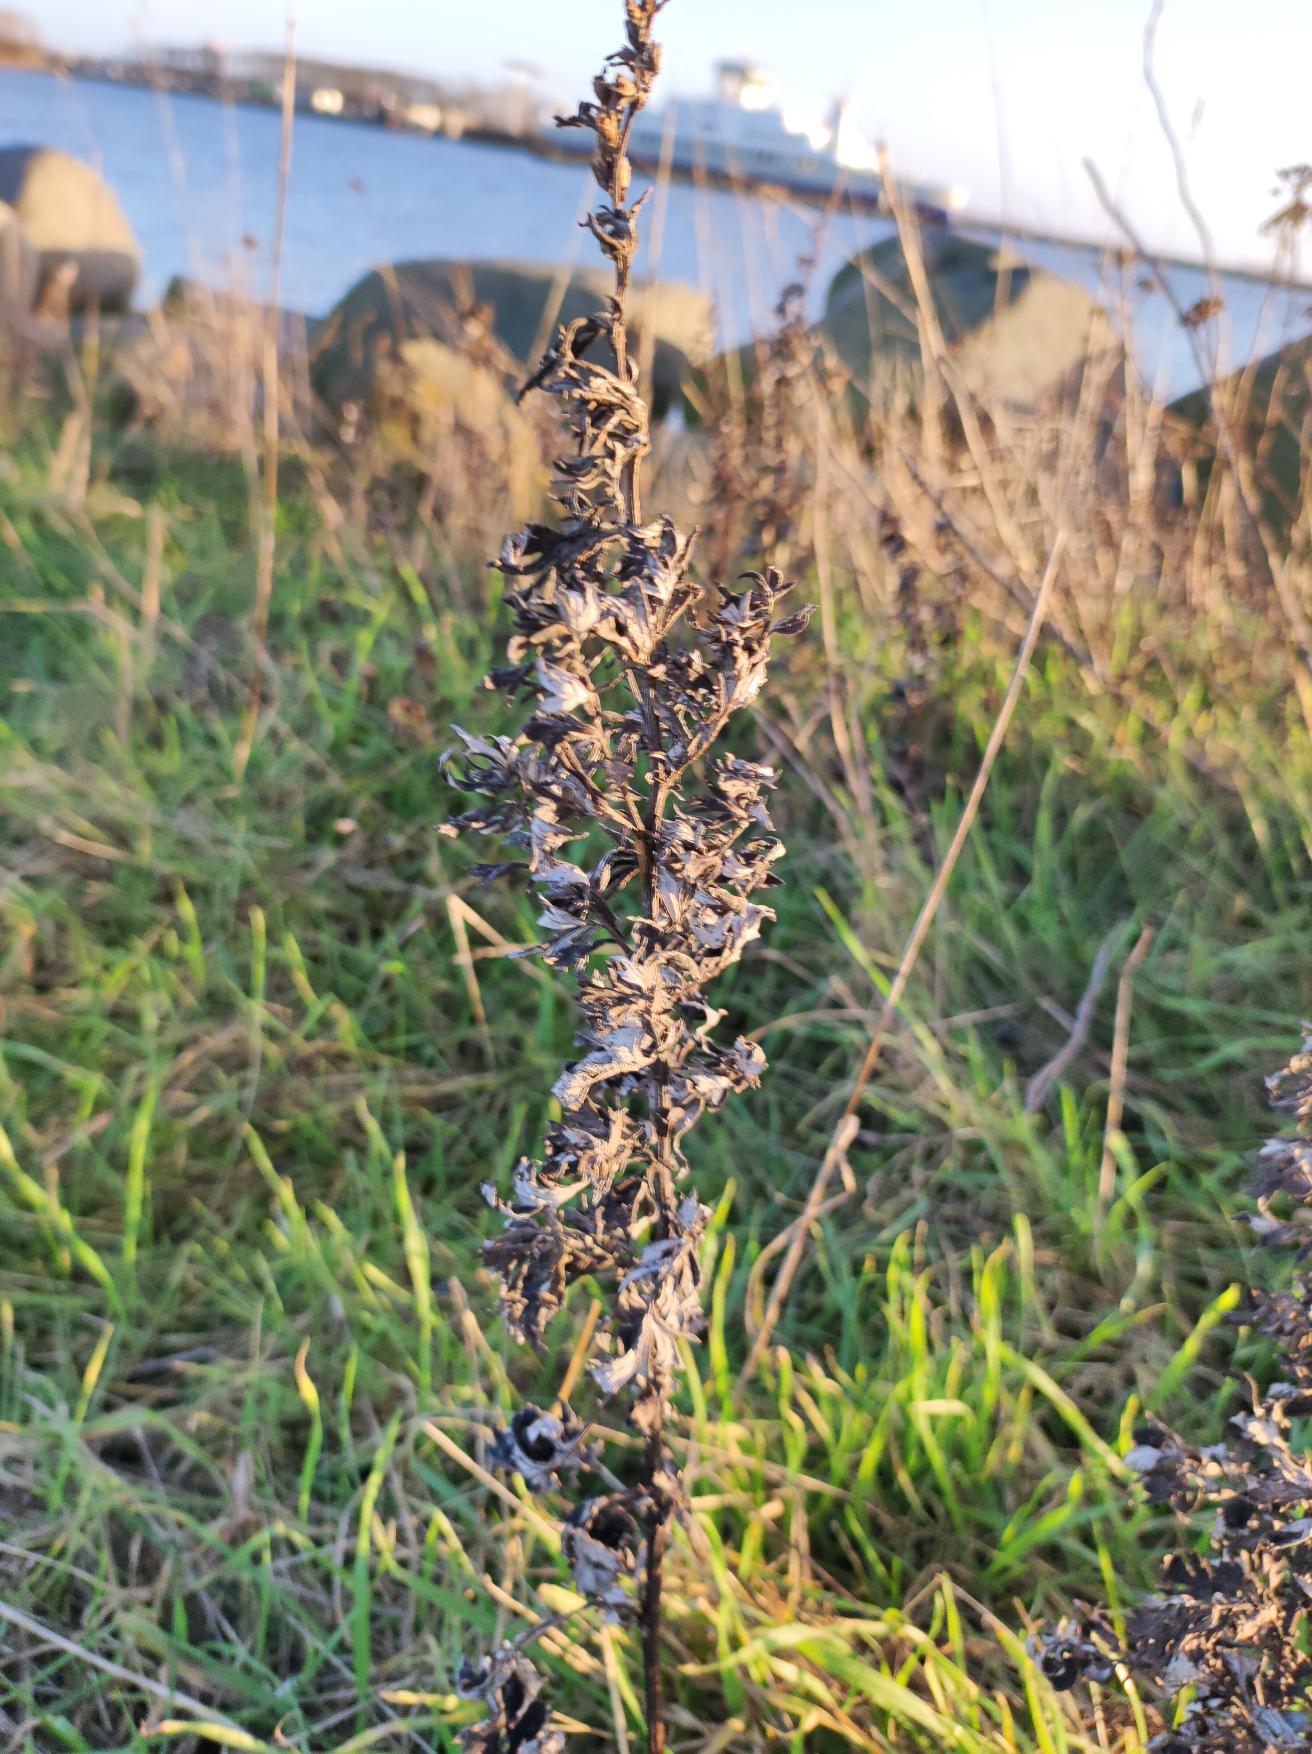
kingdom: Plantae
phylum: Tracheophyta
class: Magnoliopsida
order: Asterales
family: Asteraceae
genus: Artemisia
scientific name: Artemisia vulgaris
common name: Grå-bynke
